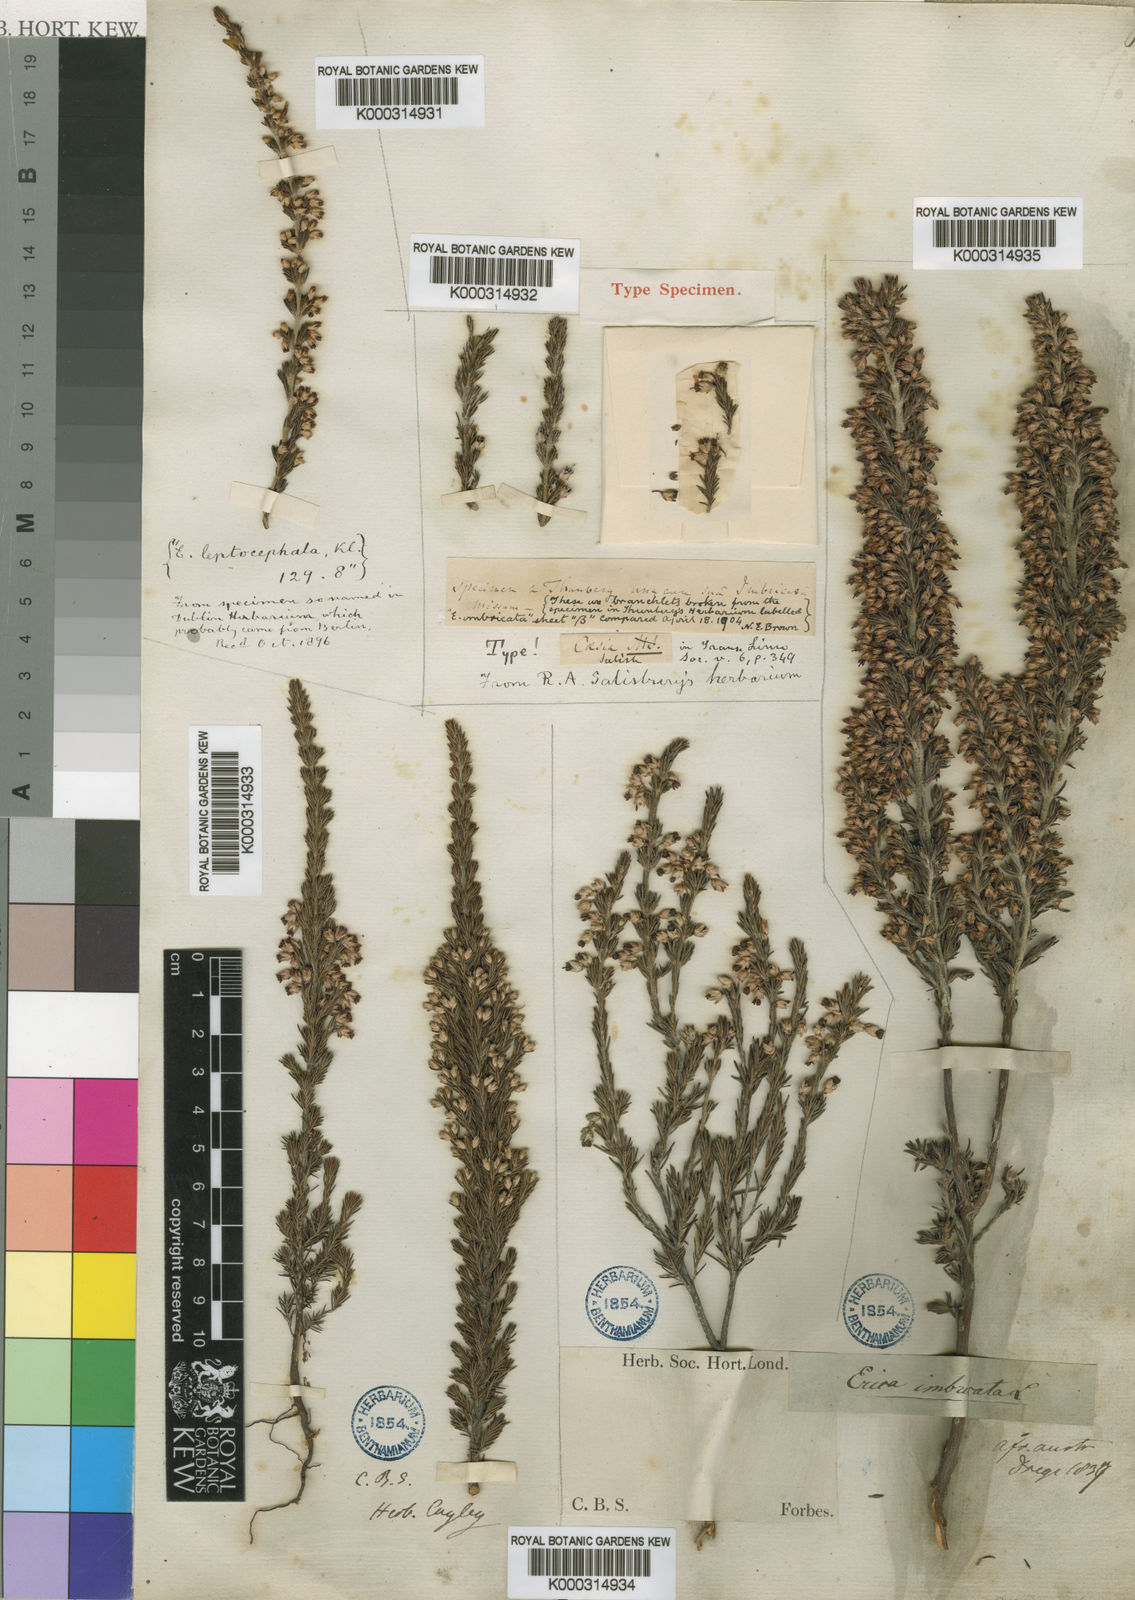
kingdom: Plantae
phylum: Tracheophyta
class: Magnoliopsida
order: Ericales
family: Ericaceae
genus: Erica
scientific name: Erica imbricata
